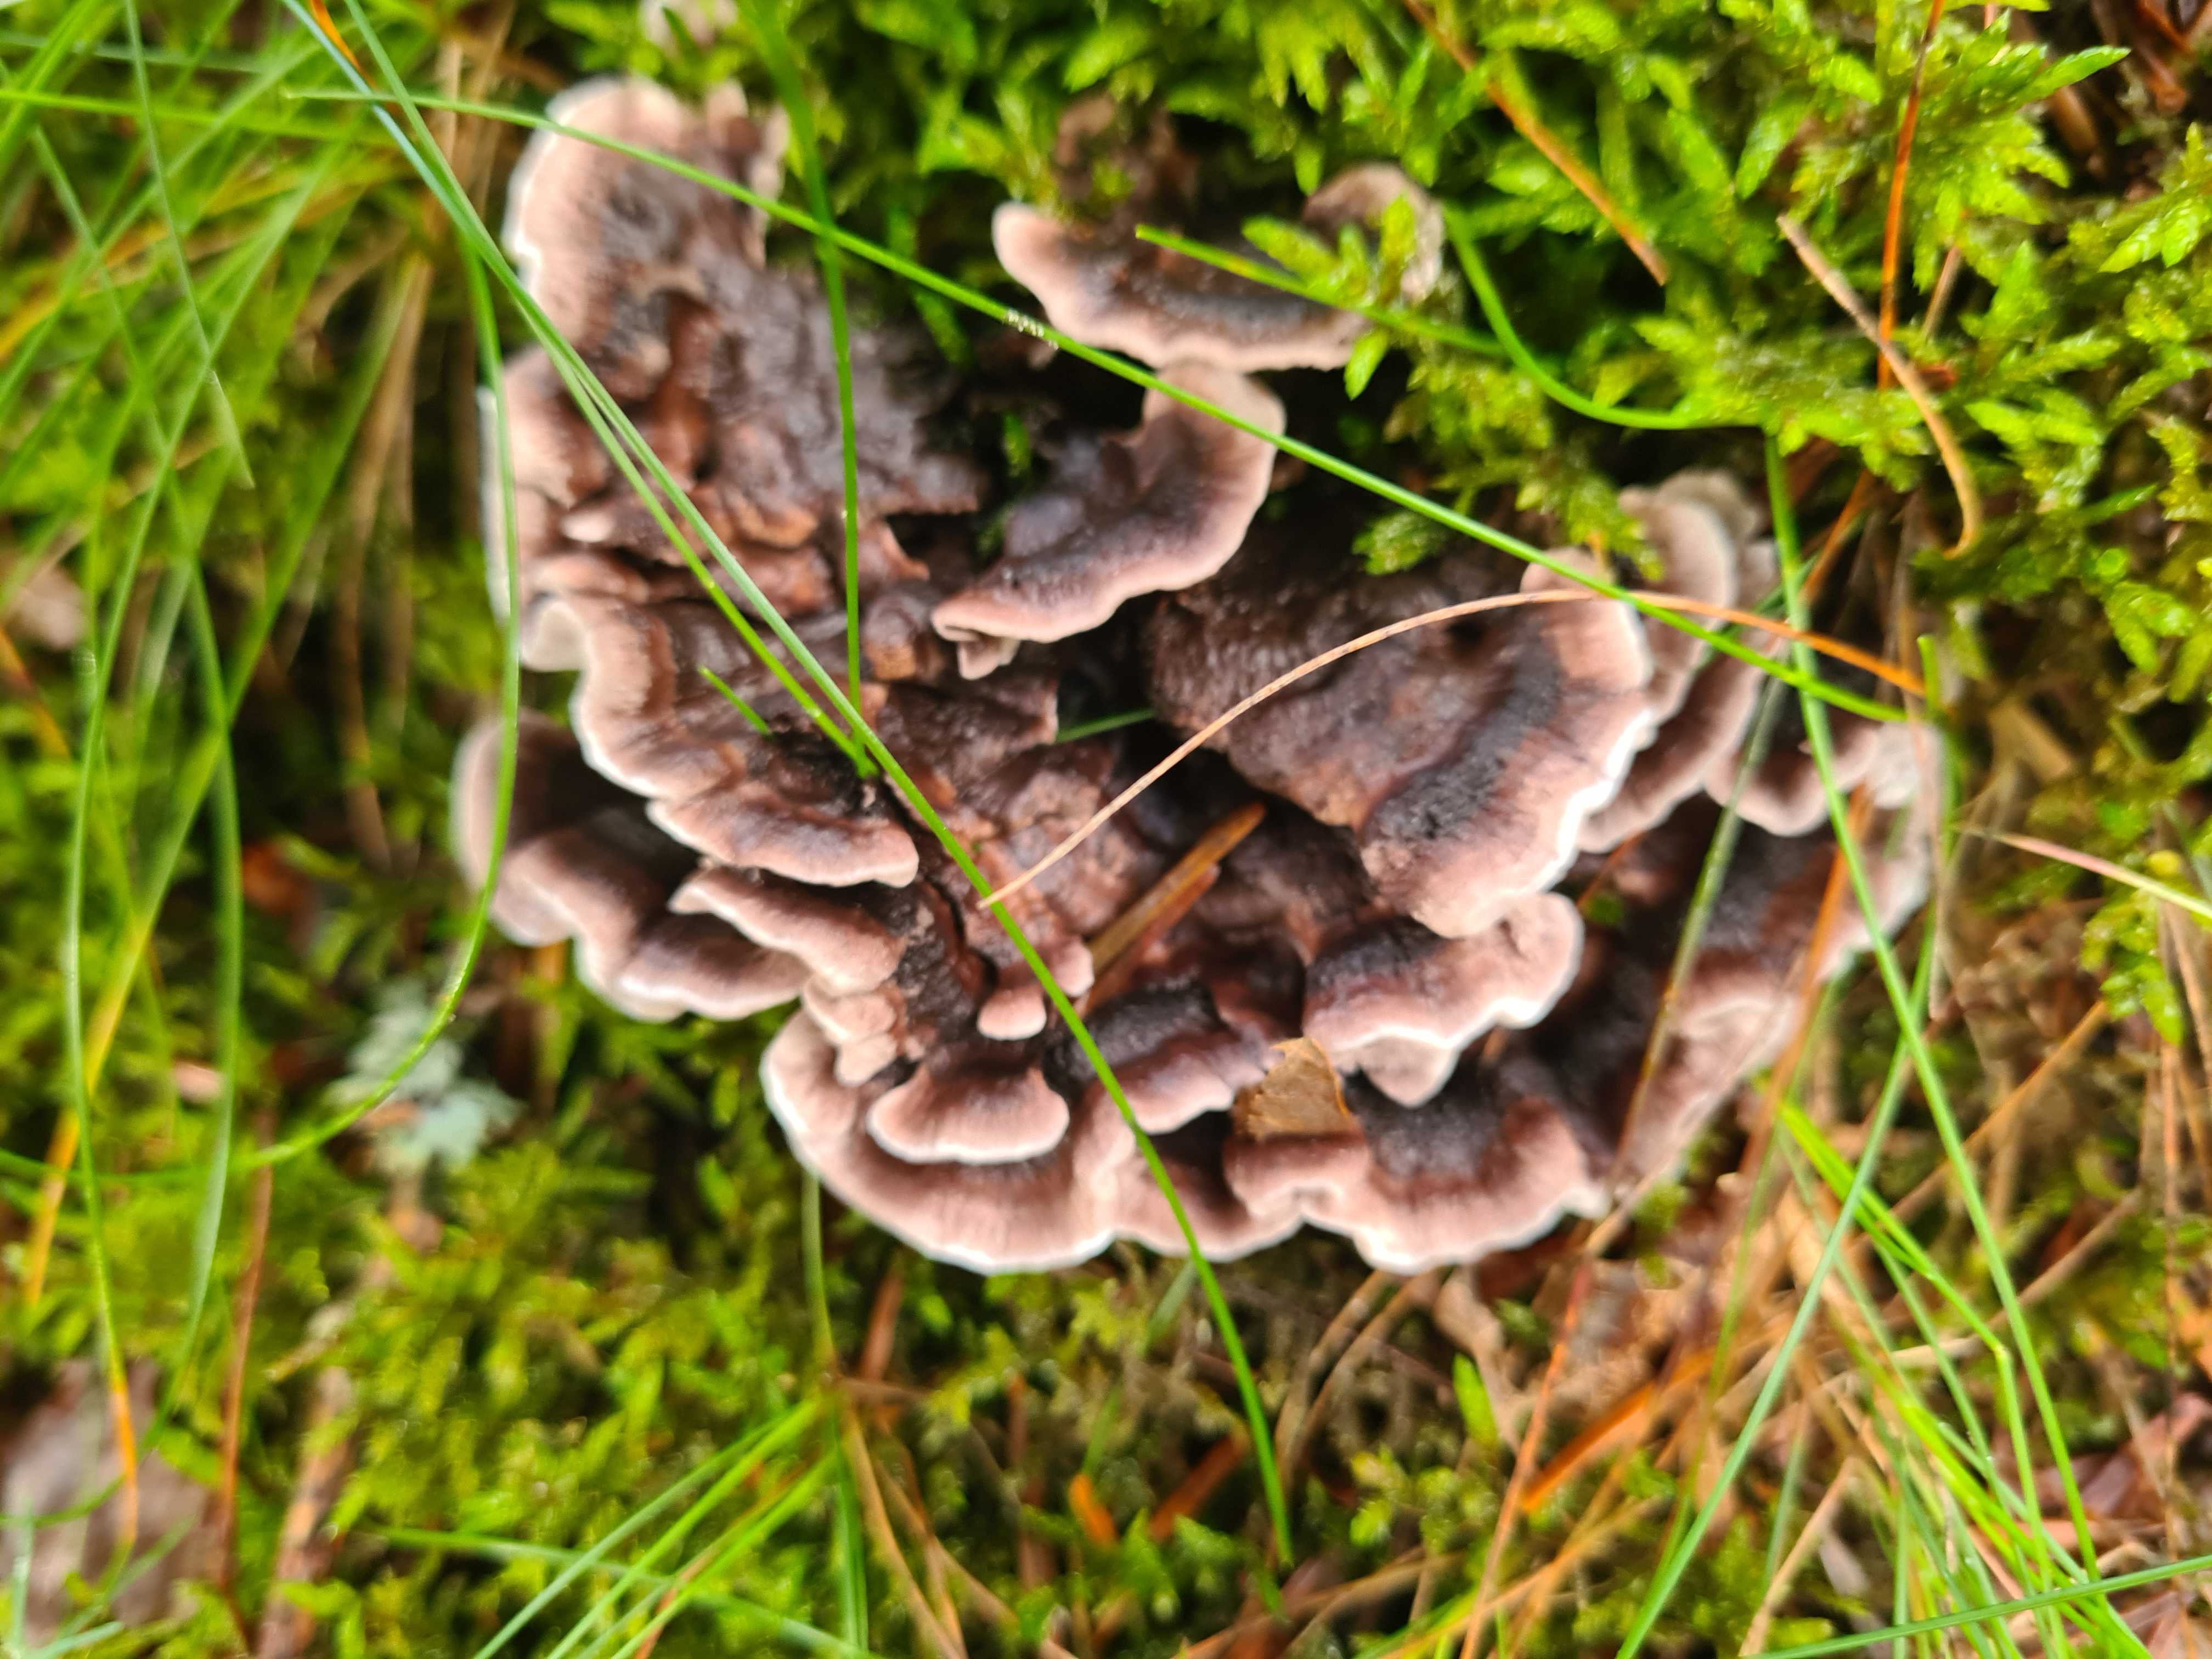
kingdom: Fungi
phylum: Basidiomycota
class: Agaricomycetes
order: Thelephorales
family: Thelephoraceae
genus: Phellodon
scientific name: Phellodon tomentosus
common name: vellugtende duftpigsvamp
